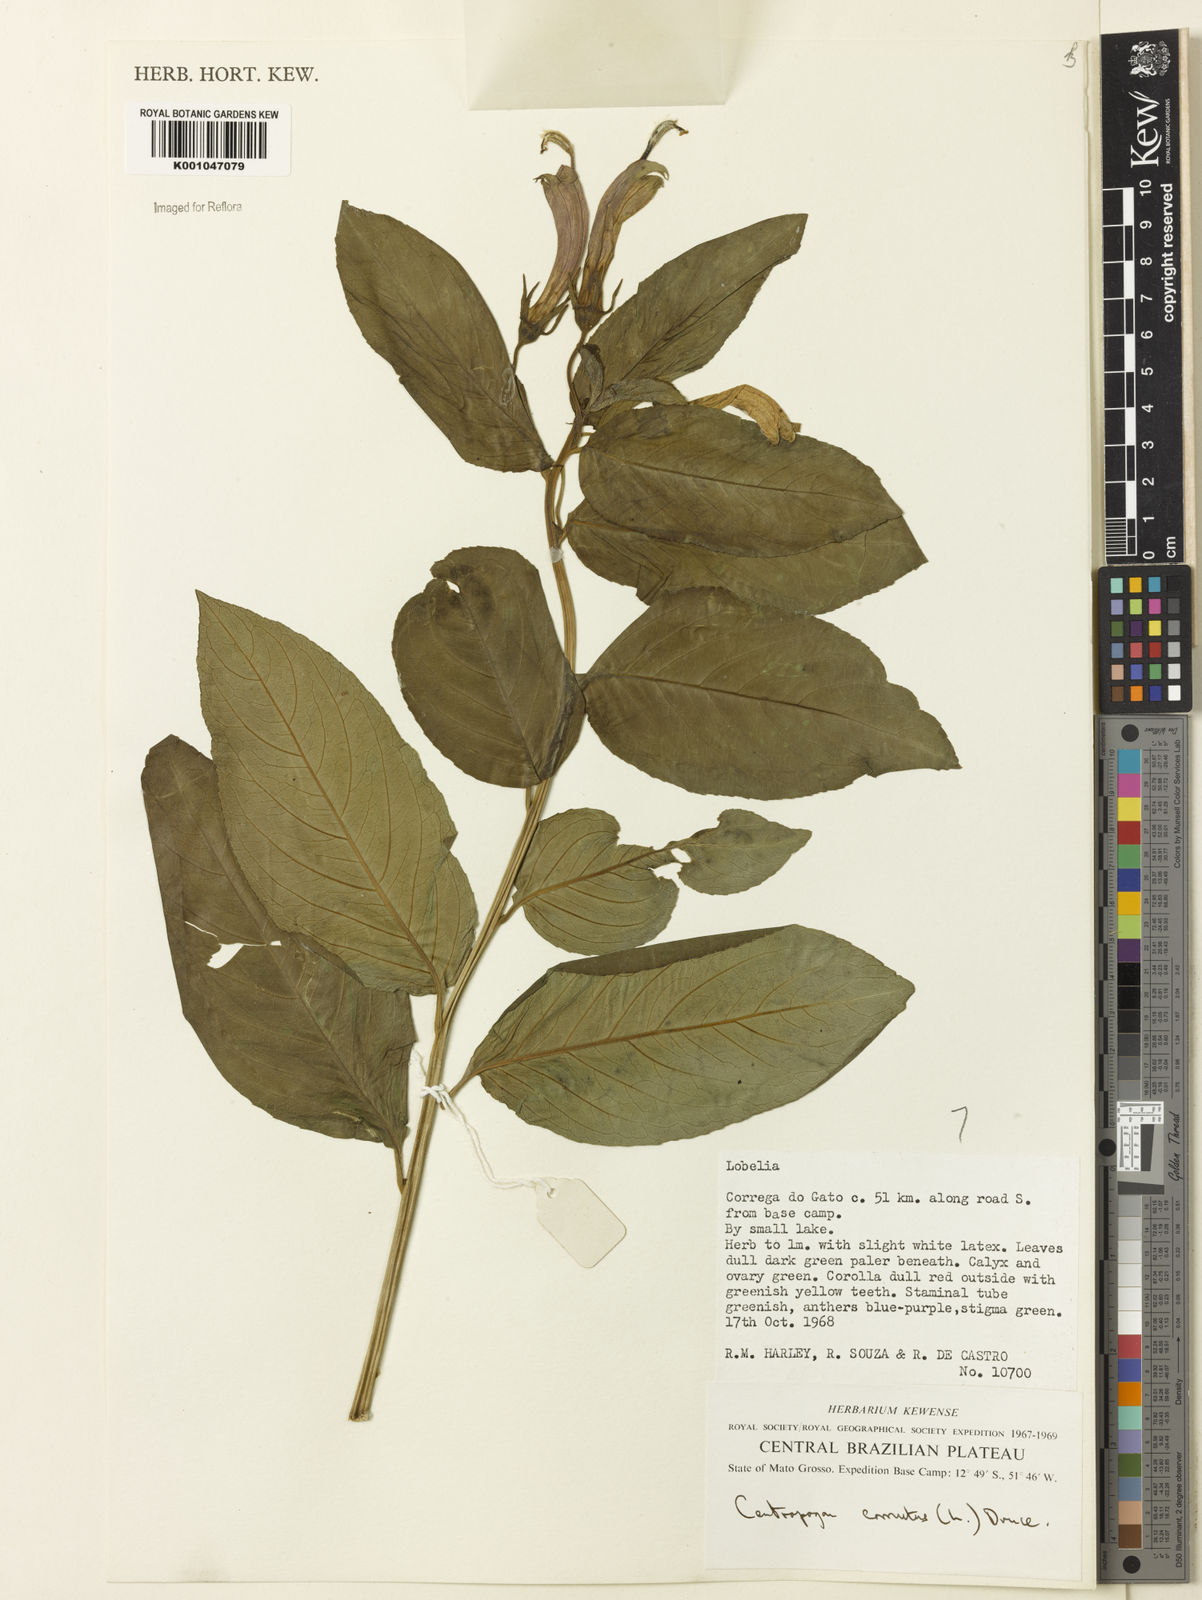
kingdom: Plantae
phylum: Tracheophyta
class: Magnoliopsida
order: Asterales
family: Campanulaceae
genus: Centropogon
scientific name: Centropogon cornutus
